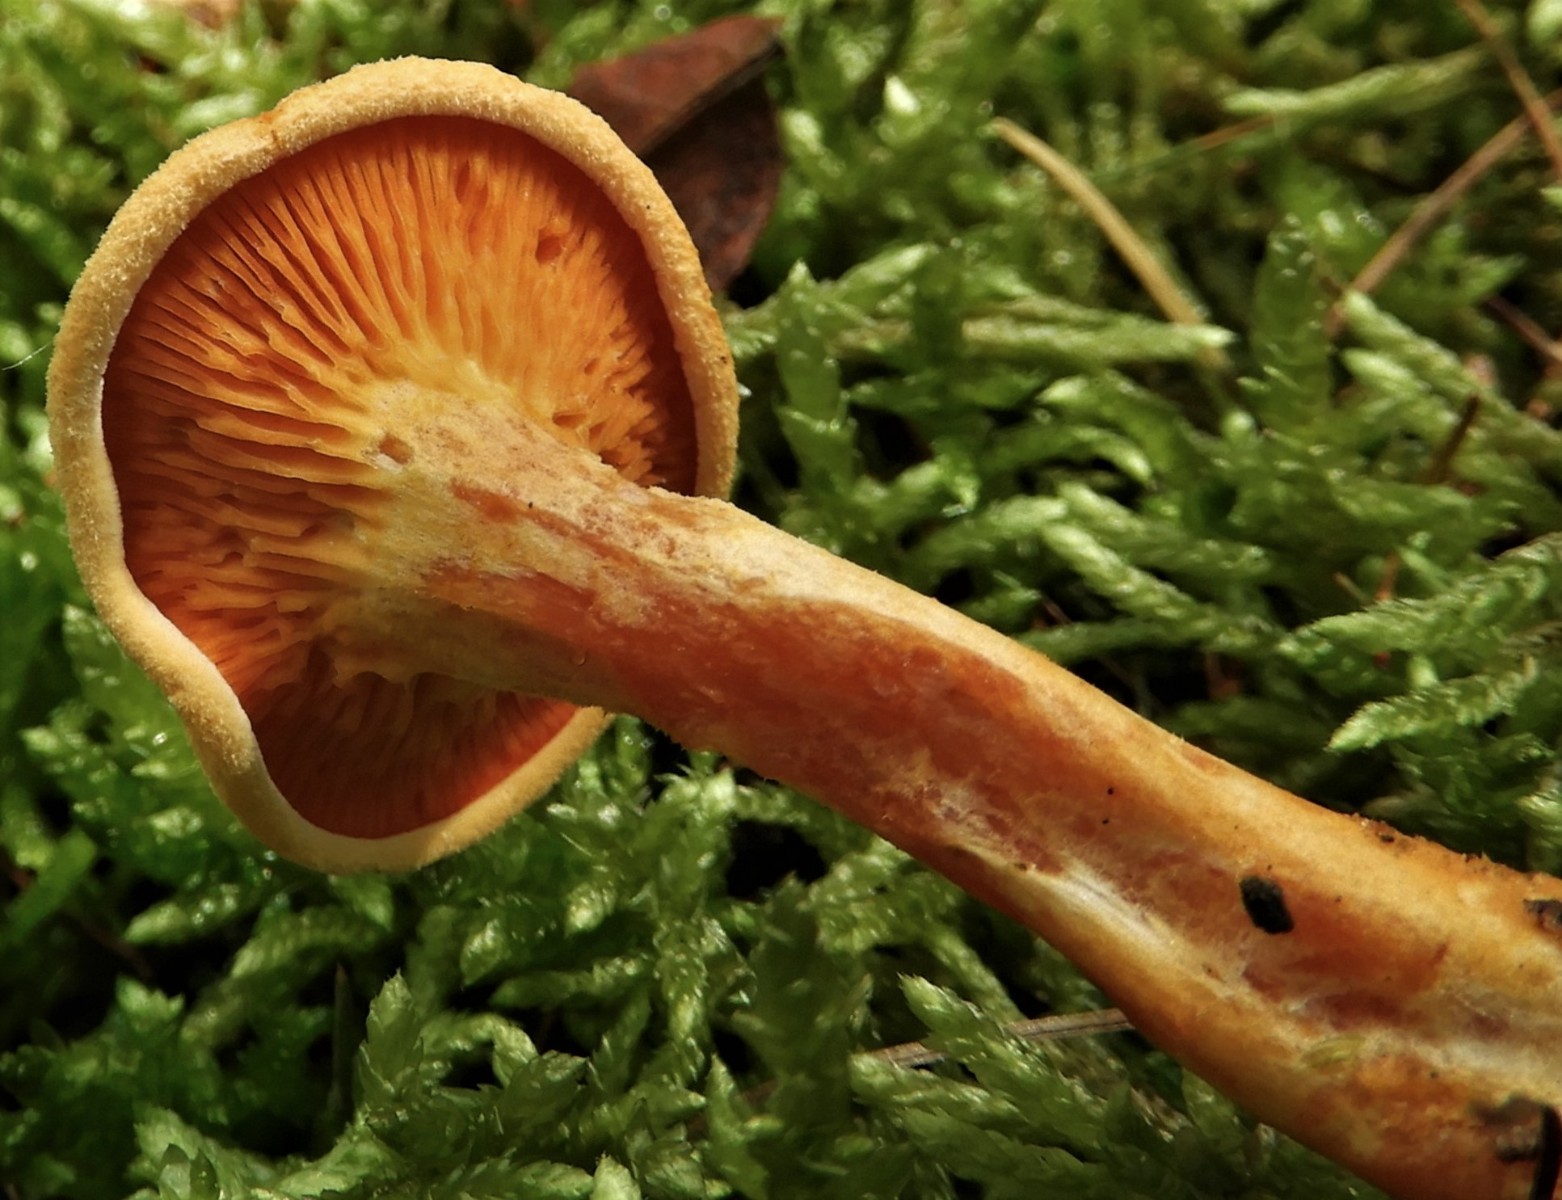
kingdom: Fungi
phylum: Basidiomycota
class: Agaricomycetes
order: Boletales
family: Hygrophoropsidaceae
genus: Hygrophoropsis
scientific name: Hygrophoropsis aurantiaca
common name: almindelig orangekantarel
